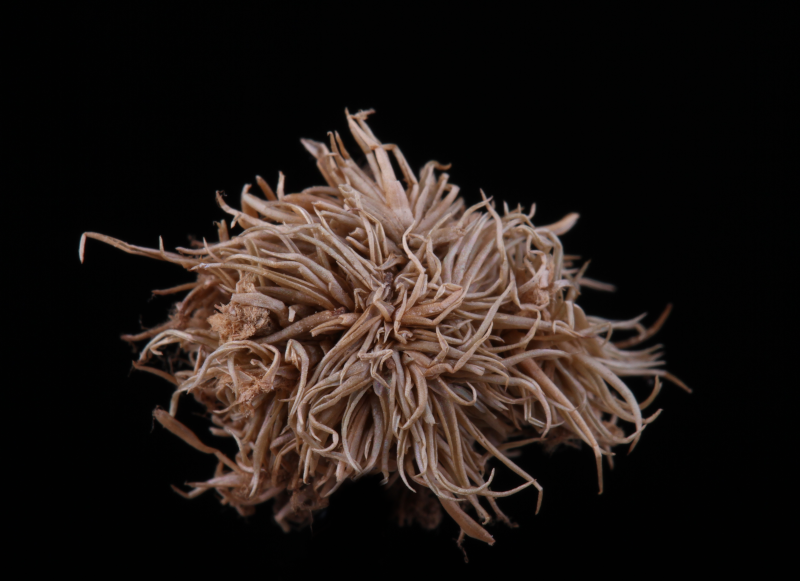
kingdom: Plantae
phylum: Bryophyta
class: Bryopsida
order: Dicranales
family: Leucobryaceae
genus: Leucobryum
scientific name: Leucobryum bowringii
